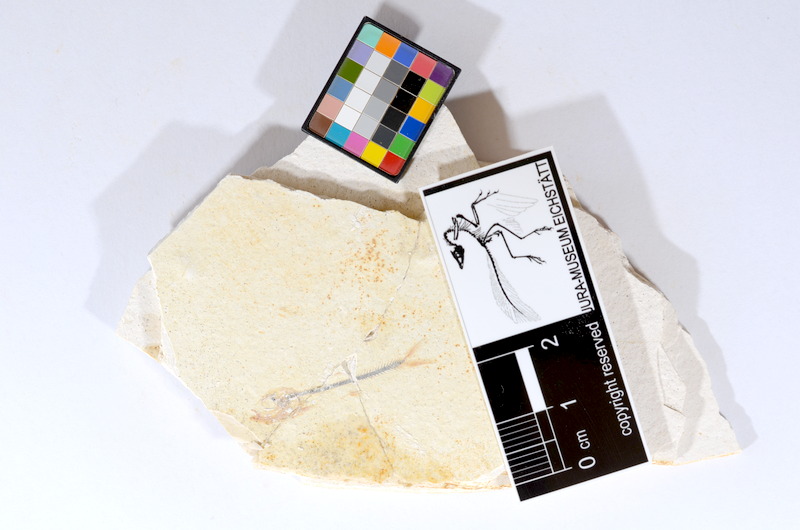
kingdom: Animalia
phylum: Chordata
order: Salmoniformes
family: Orthogonikleithridae
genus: Orthogonikleithrus
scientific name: Orthogonikleithrus hoelli
